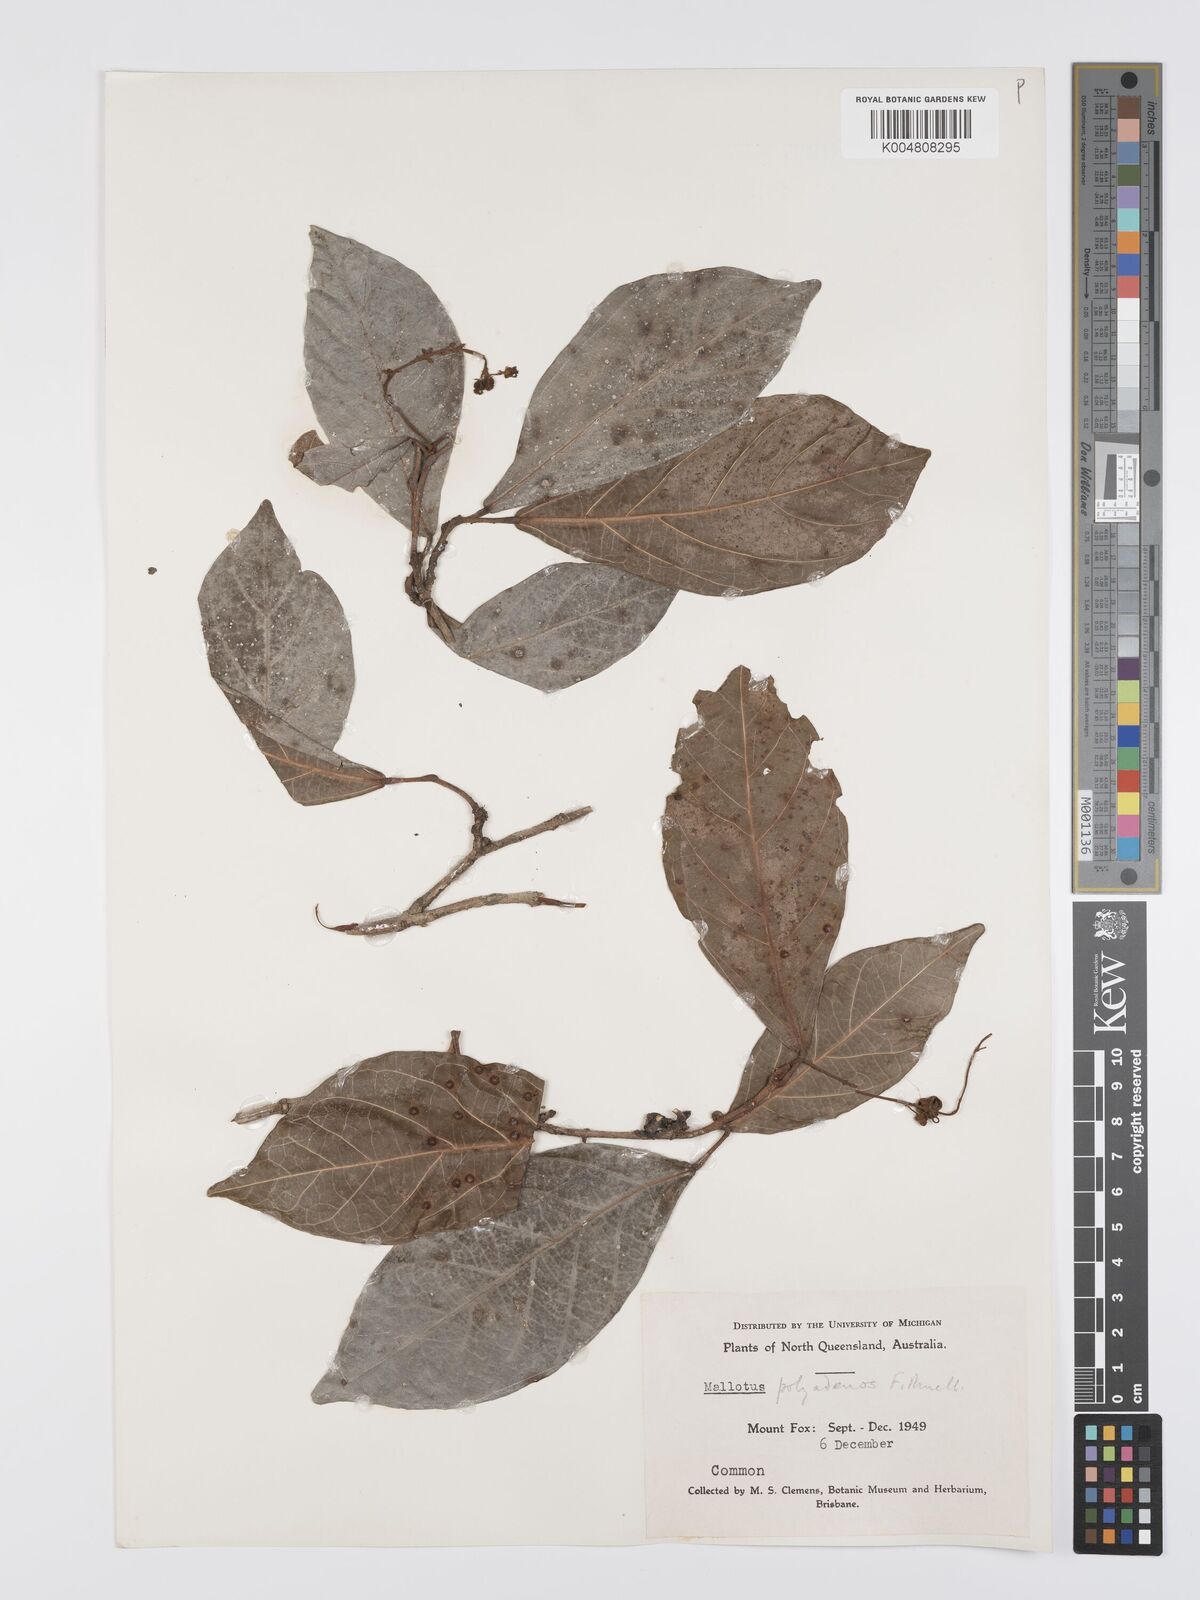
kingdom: Plantae
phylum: Tracheophyta
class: Magnoliopsida
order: Malpighiales
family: Euphorbiaceae
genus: Mallotus
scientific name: Mallotus polyadenos
